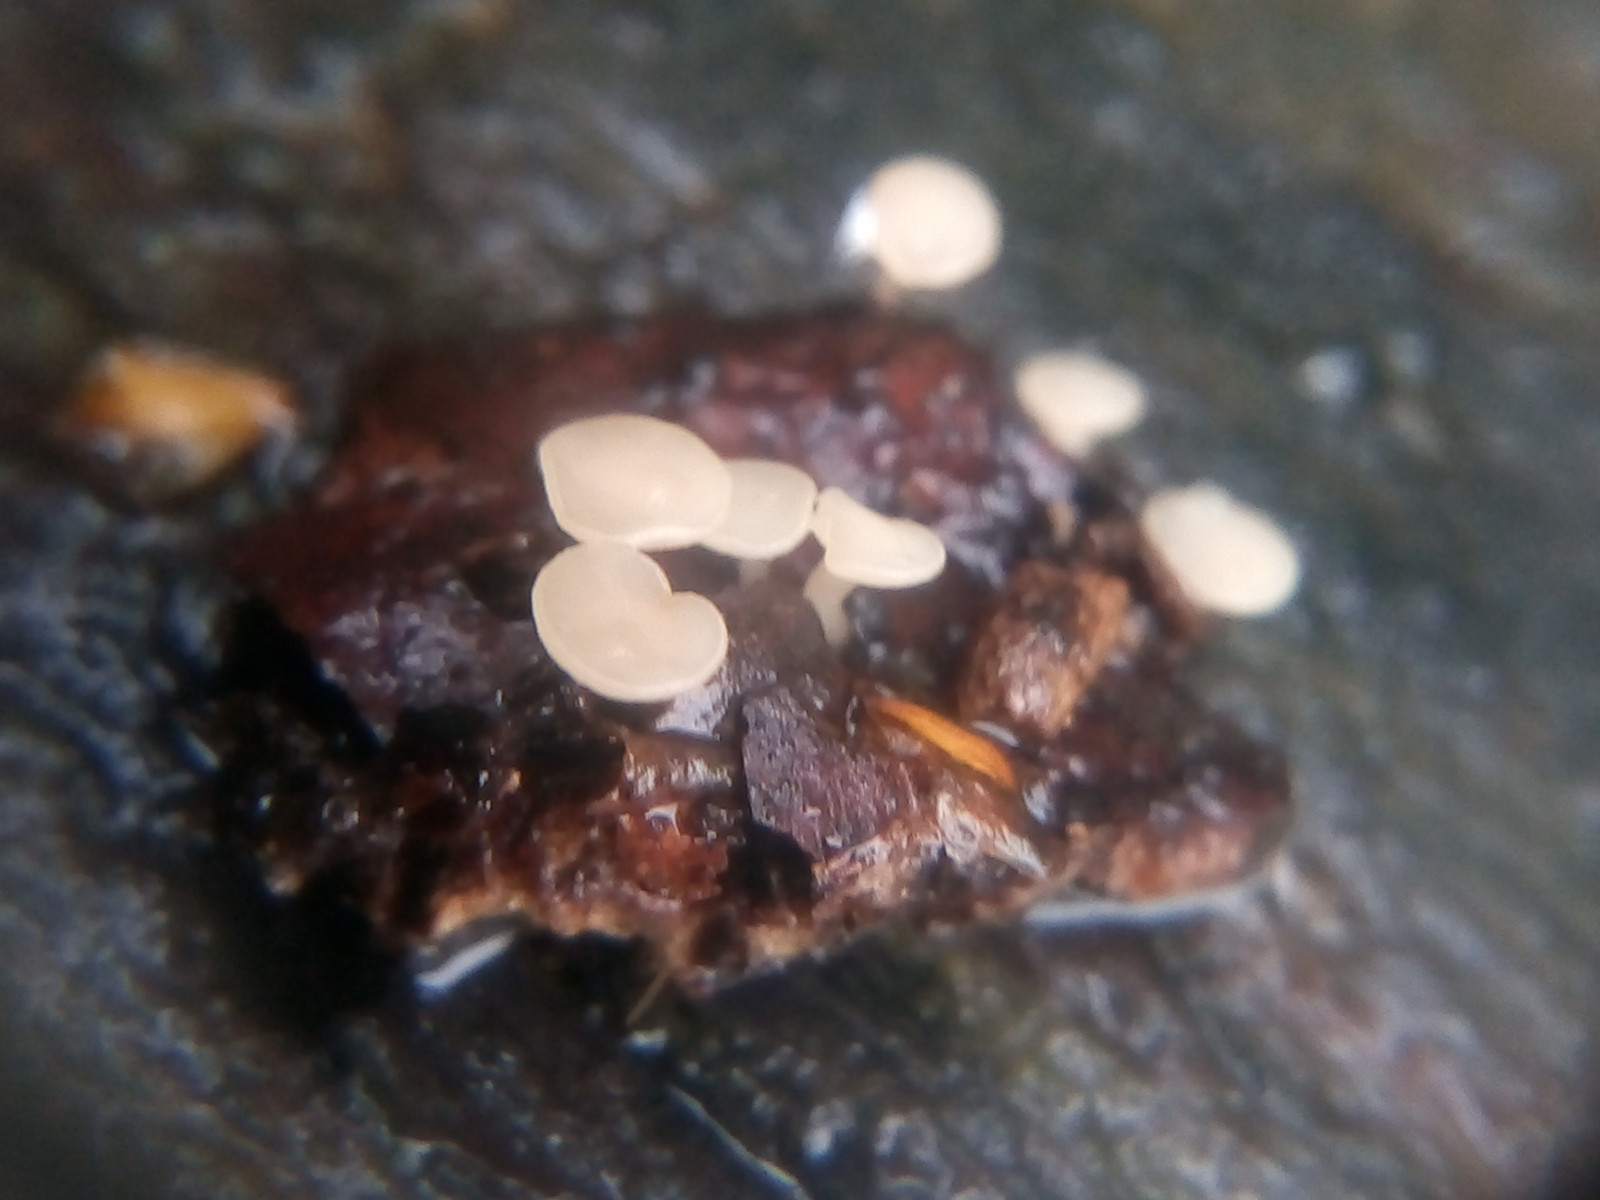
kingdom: Fungi
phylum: Ascomycota
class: Leotiomycetes
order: Helotiales
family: Helotiaceae
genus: Hymenoscyphus
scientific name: Hymenoscyphus fagineus
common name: vellugtende stilkskive
